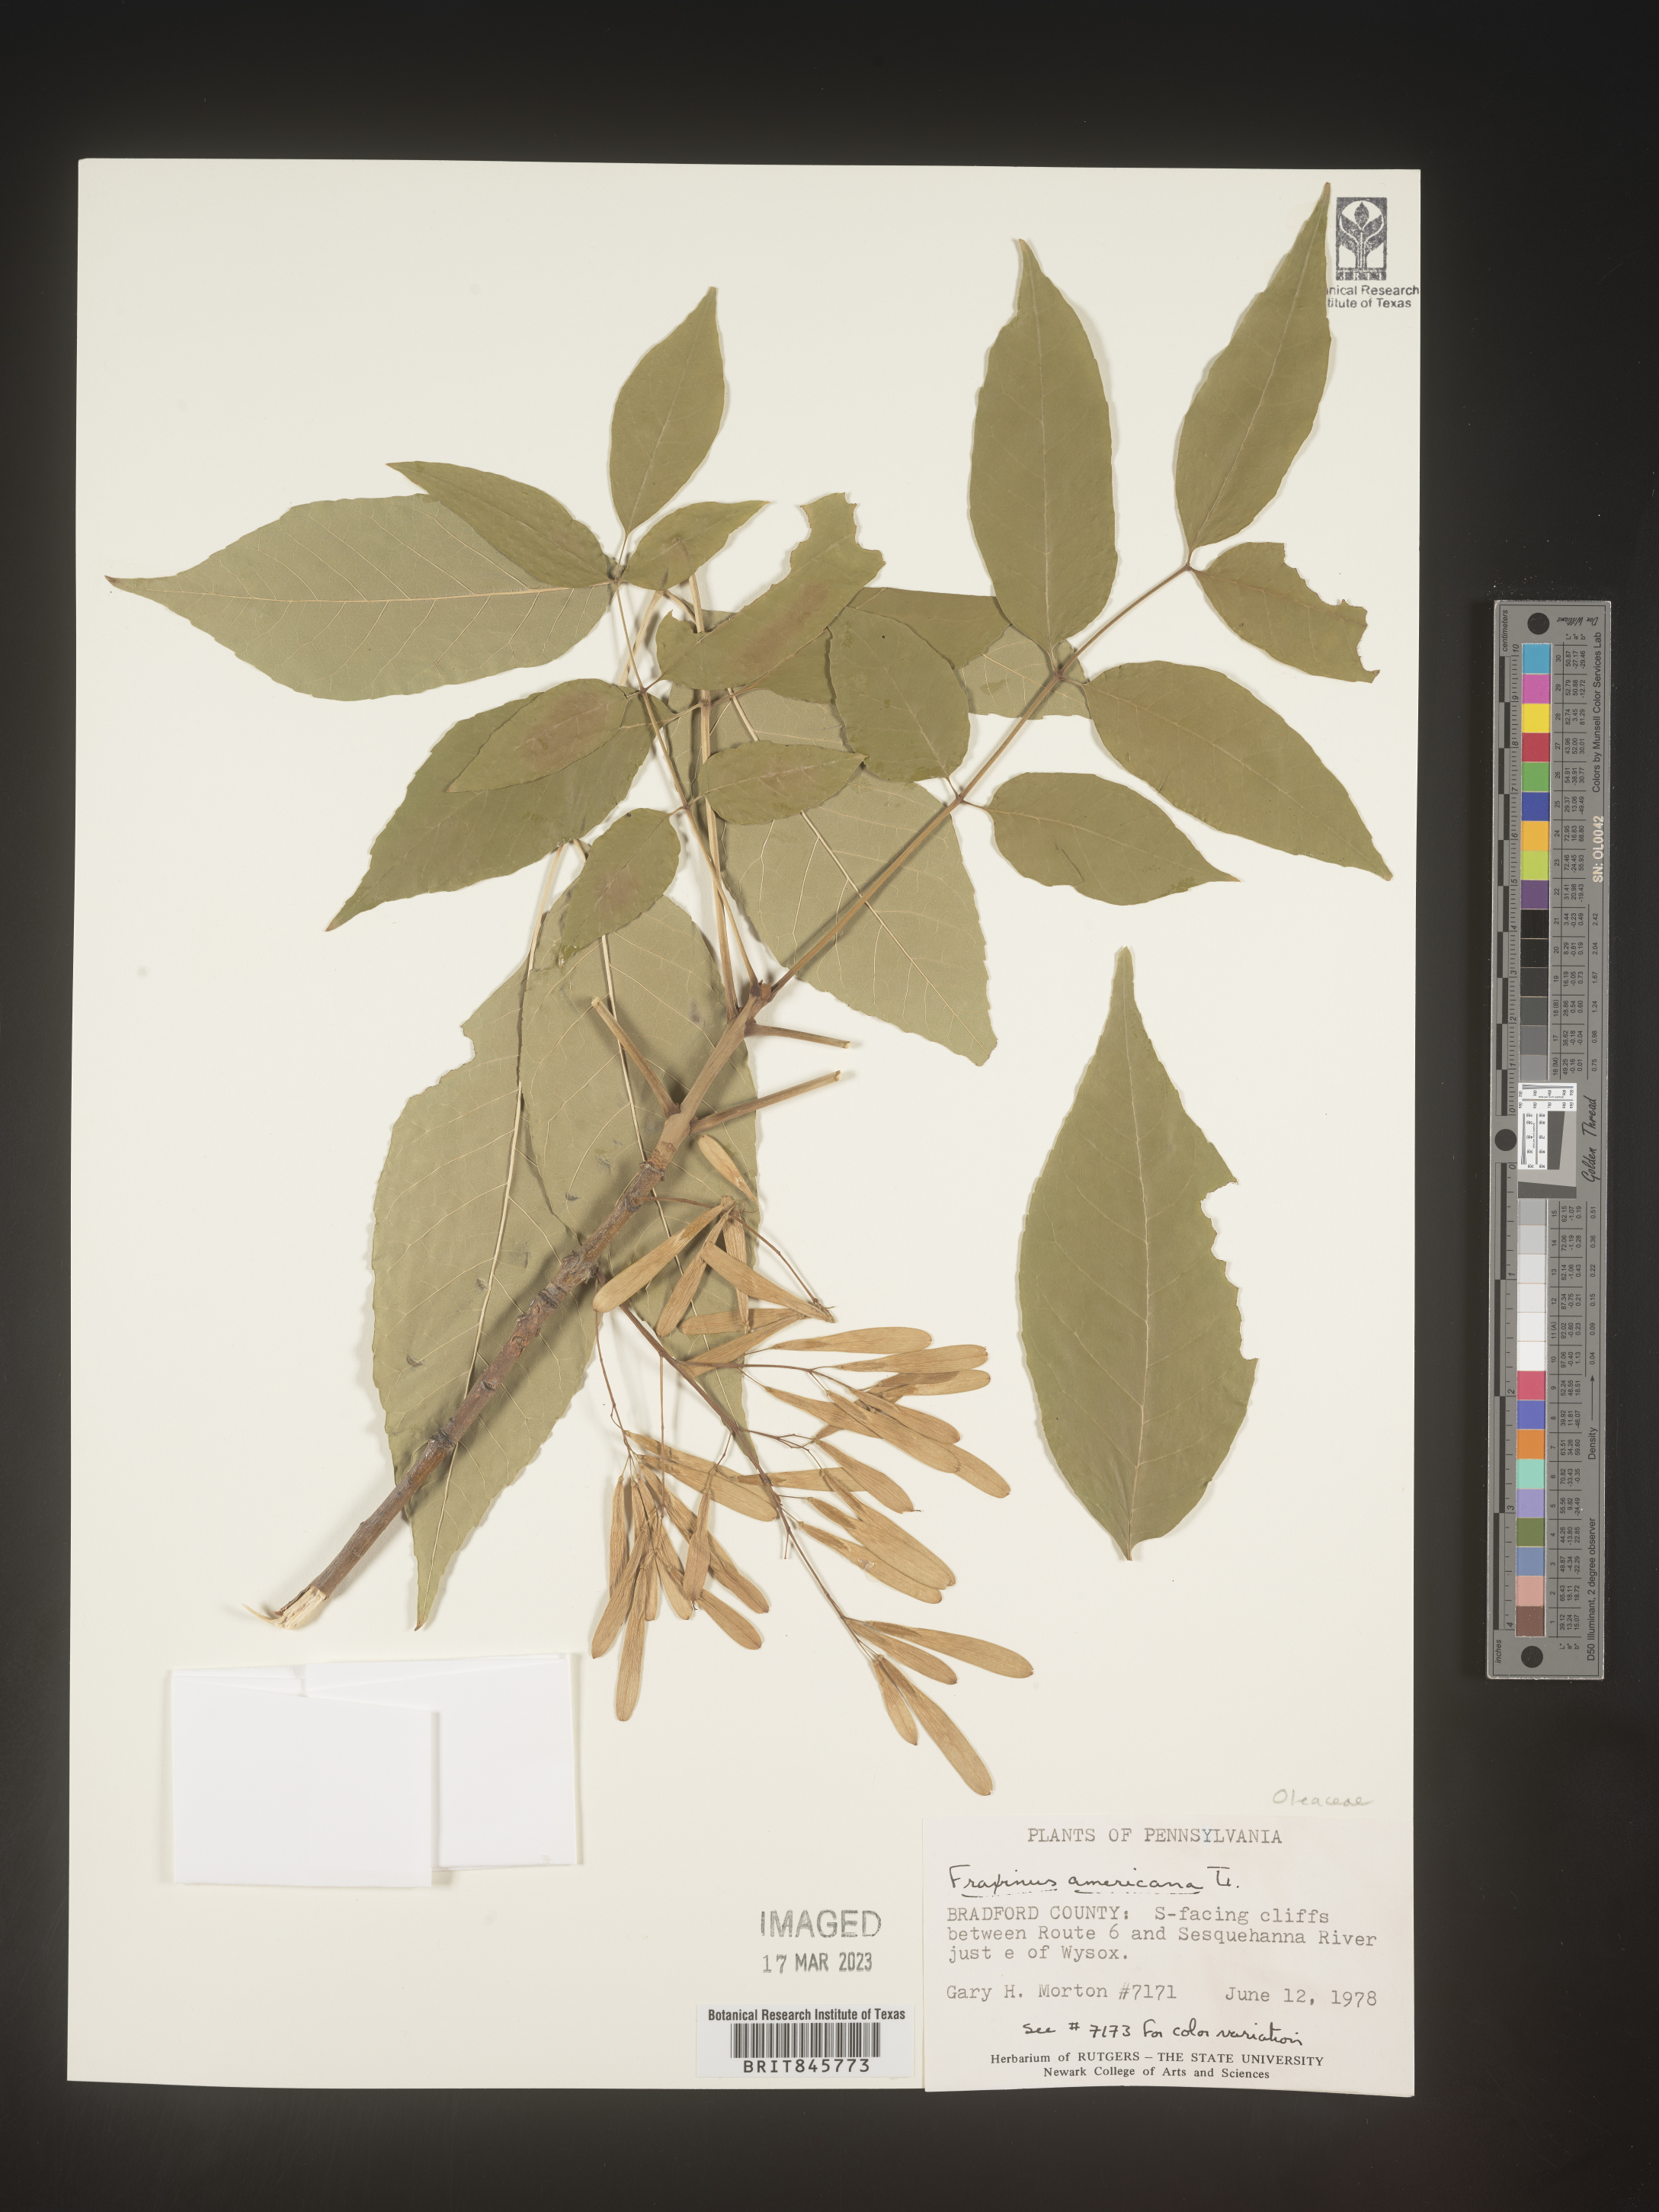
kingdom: Plantae
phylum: Tracheophyta
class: Magnoliopsida
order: Lamiales
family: Oleaceae
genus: Fraxinus
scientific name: Fraxinus americana
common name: White ash
